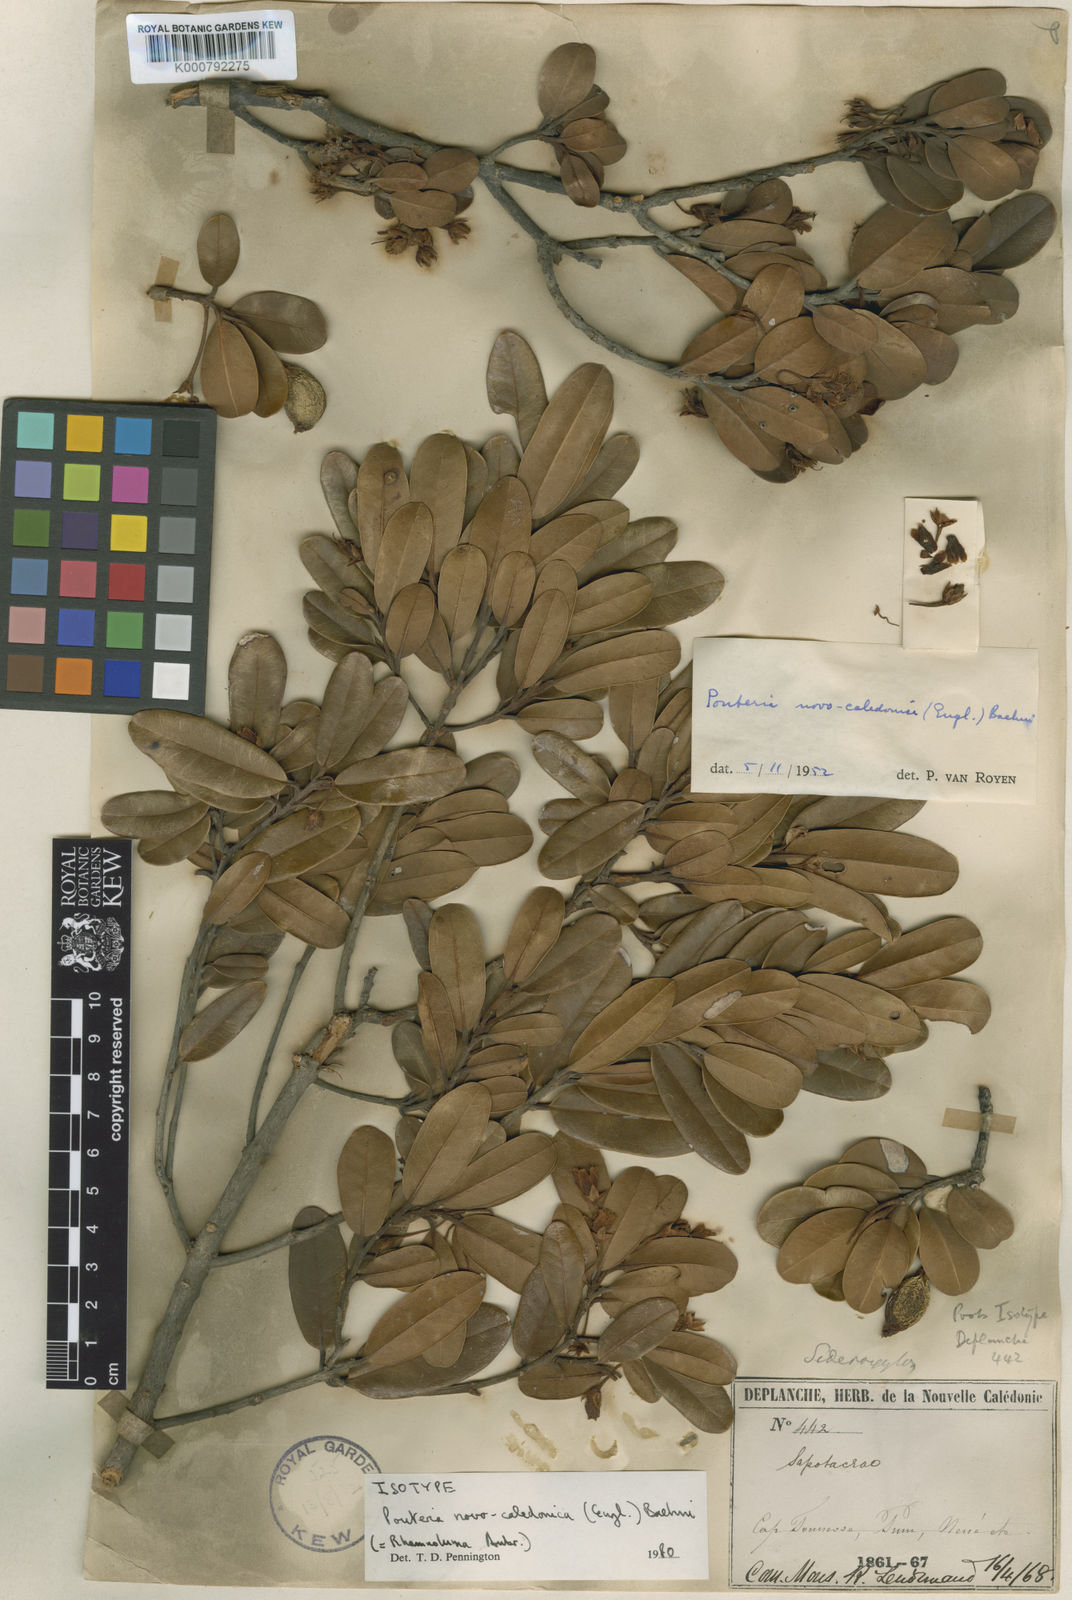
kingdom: Plantae
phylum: Tracheophyta
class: Magnoliopsida
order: Ericales
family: Sapotaceae
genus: Pichonia
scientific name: Pichonia deplanchei
